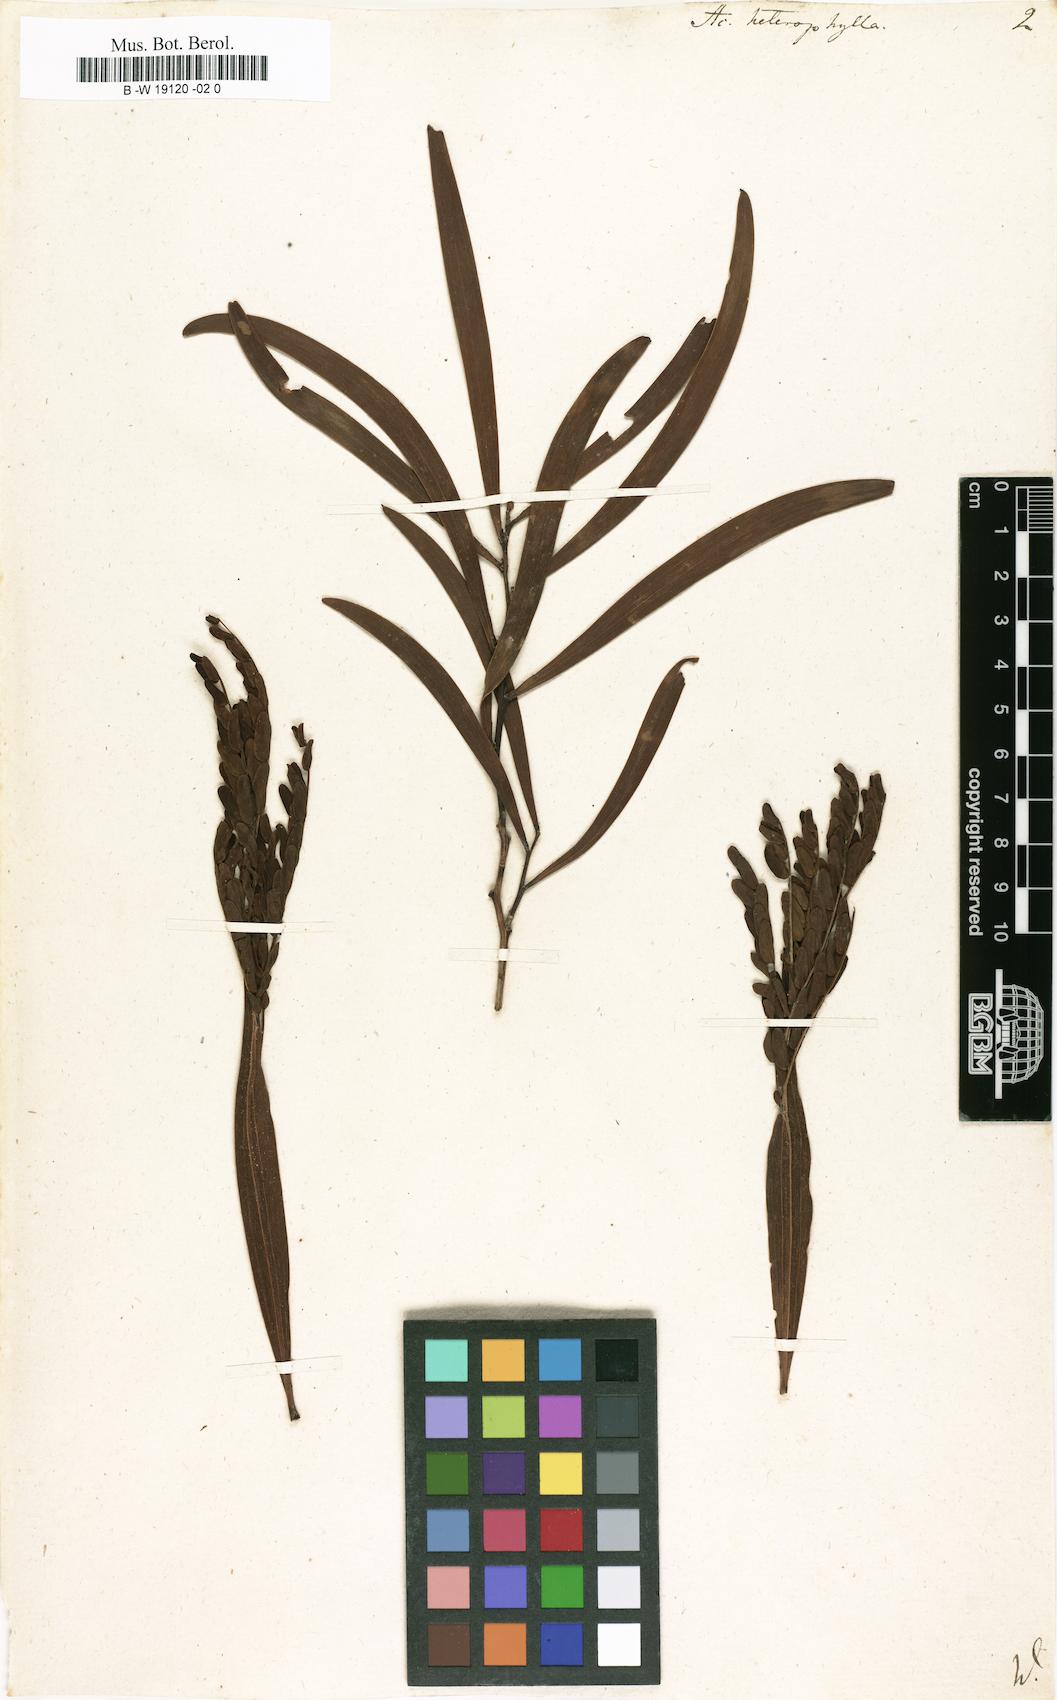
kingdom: Plantae
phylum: Tracheophyta
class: Magnoliopsida
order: Fabales
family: Fabaceae
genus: Acacia
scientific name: Acacia heterophylla
